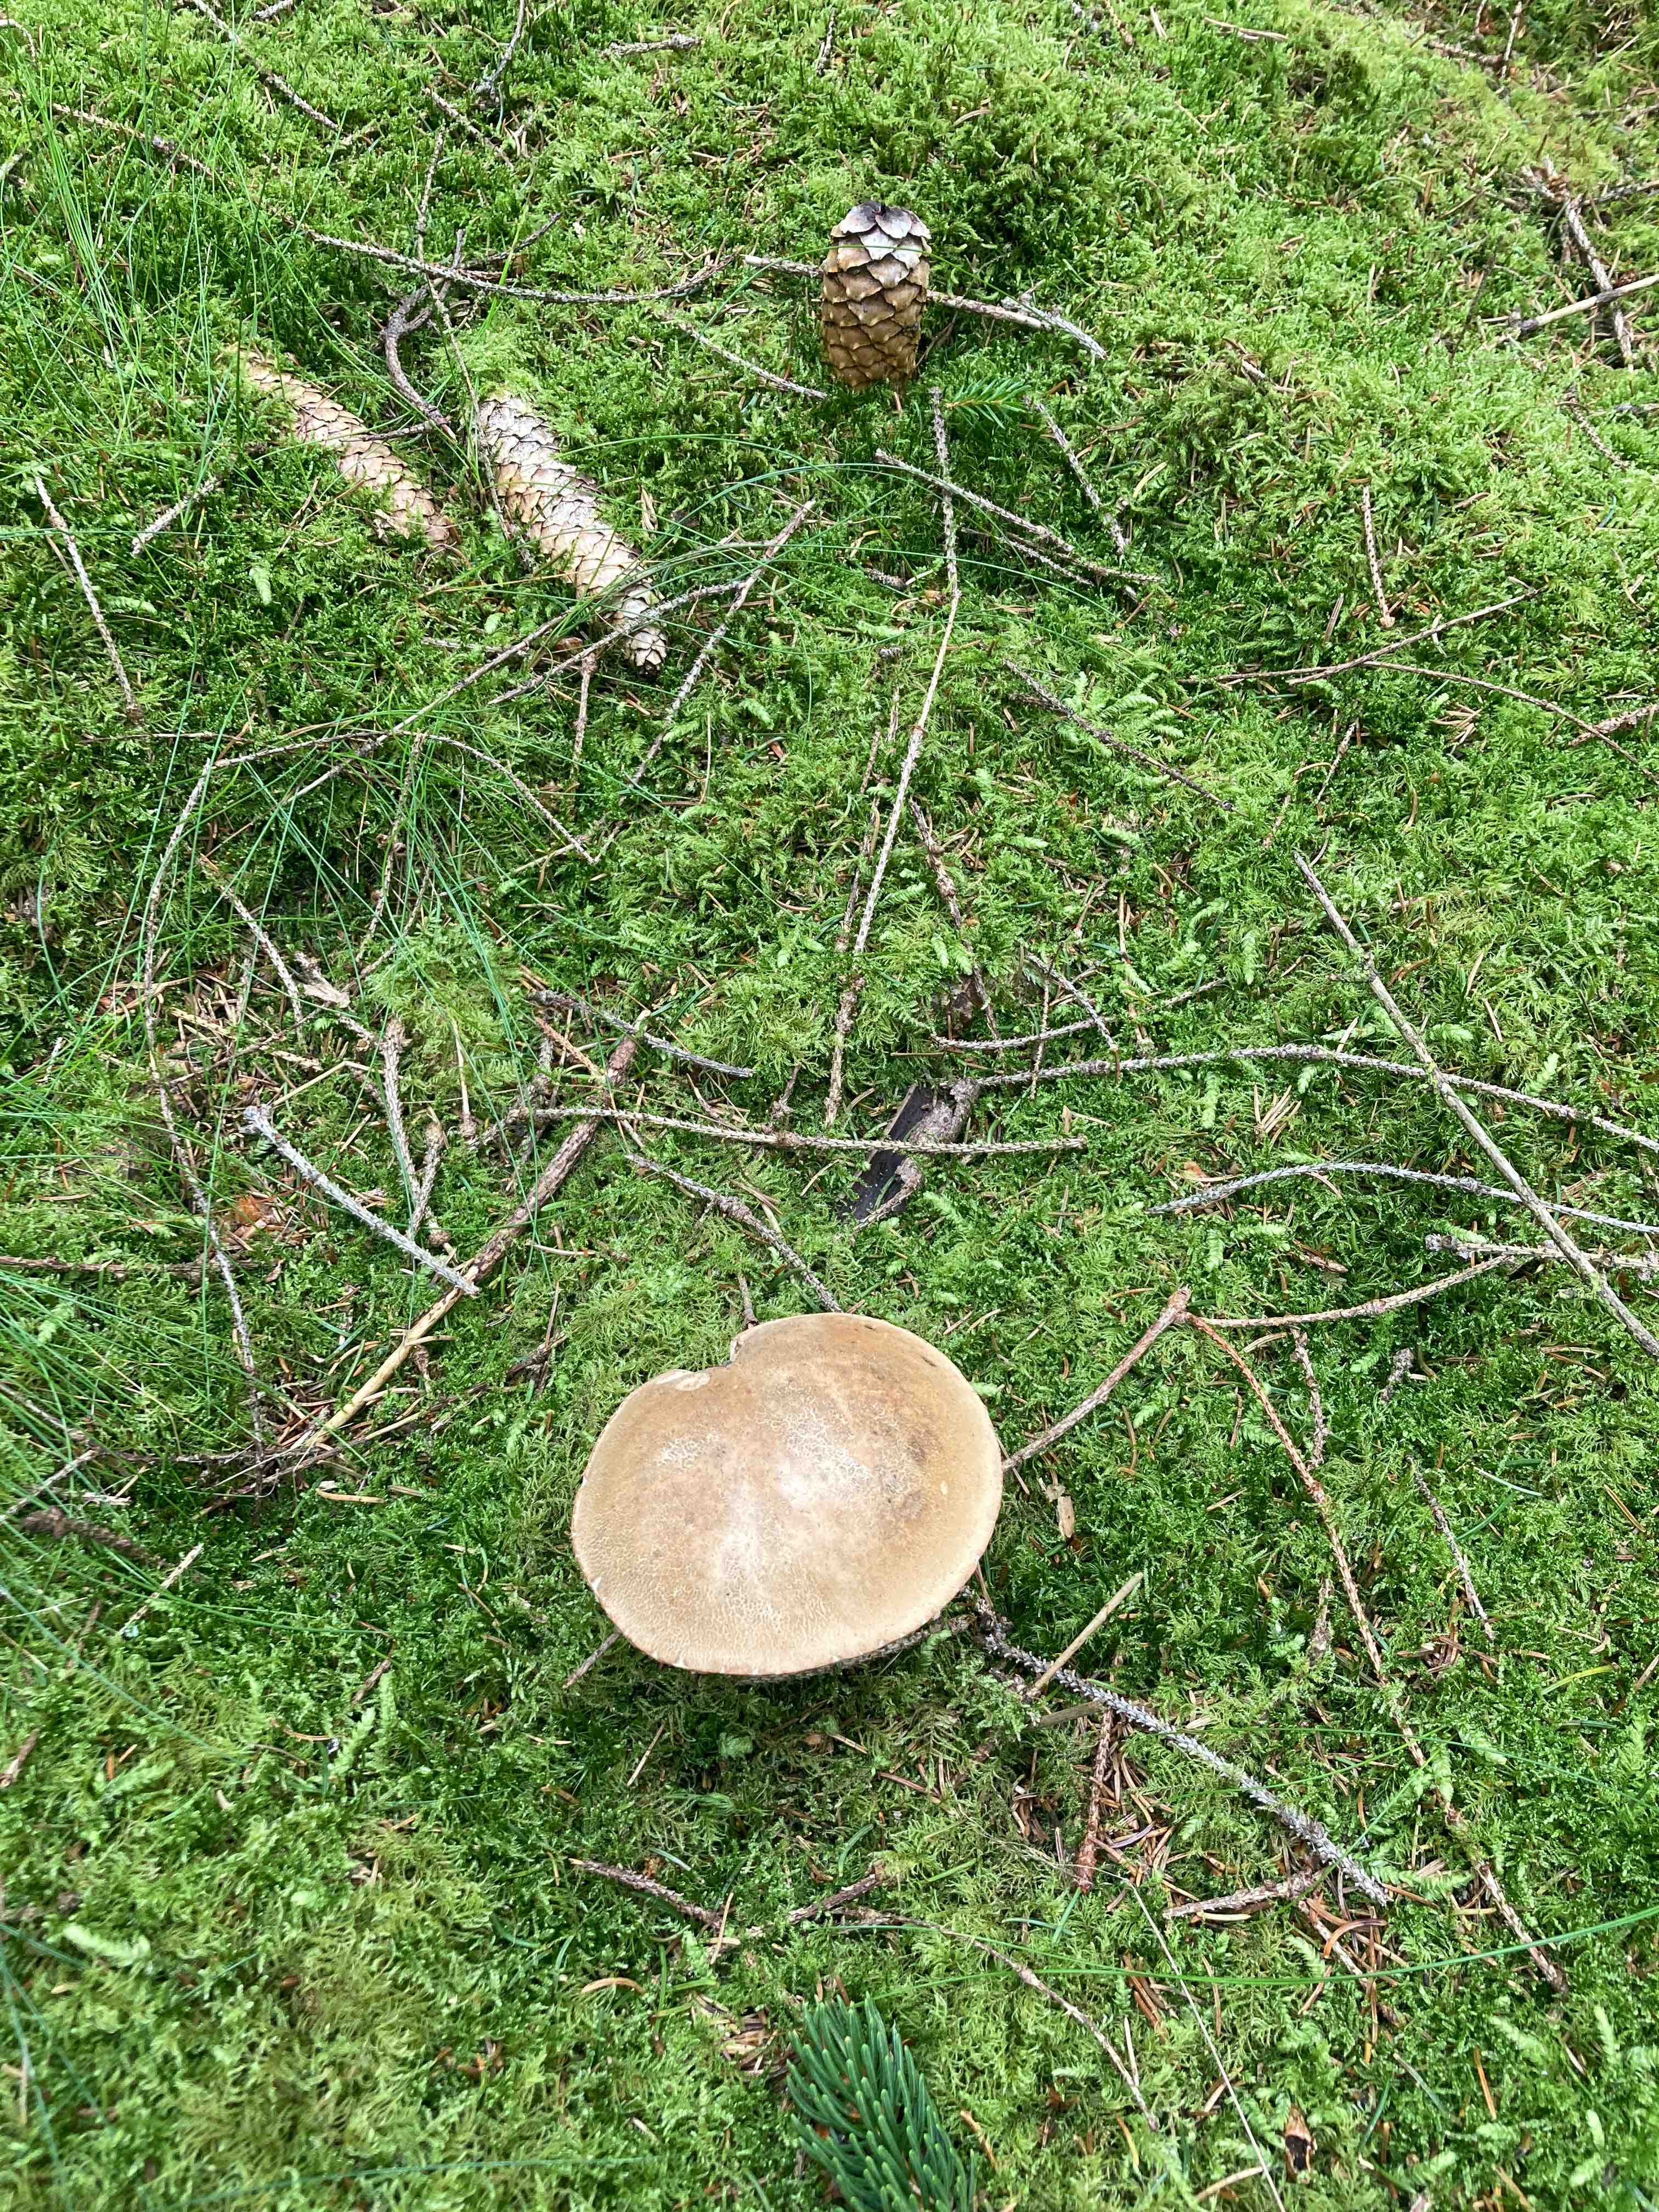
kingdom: Fungi
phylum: Basidiomycota
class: Agaricomycetes
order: Boletales
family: Boletaceae
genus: Tylopilus
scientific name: Tylopilus felleus
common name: galderørhat
